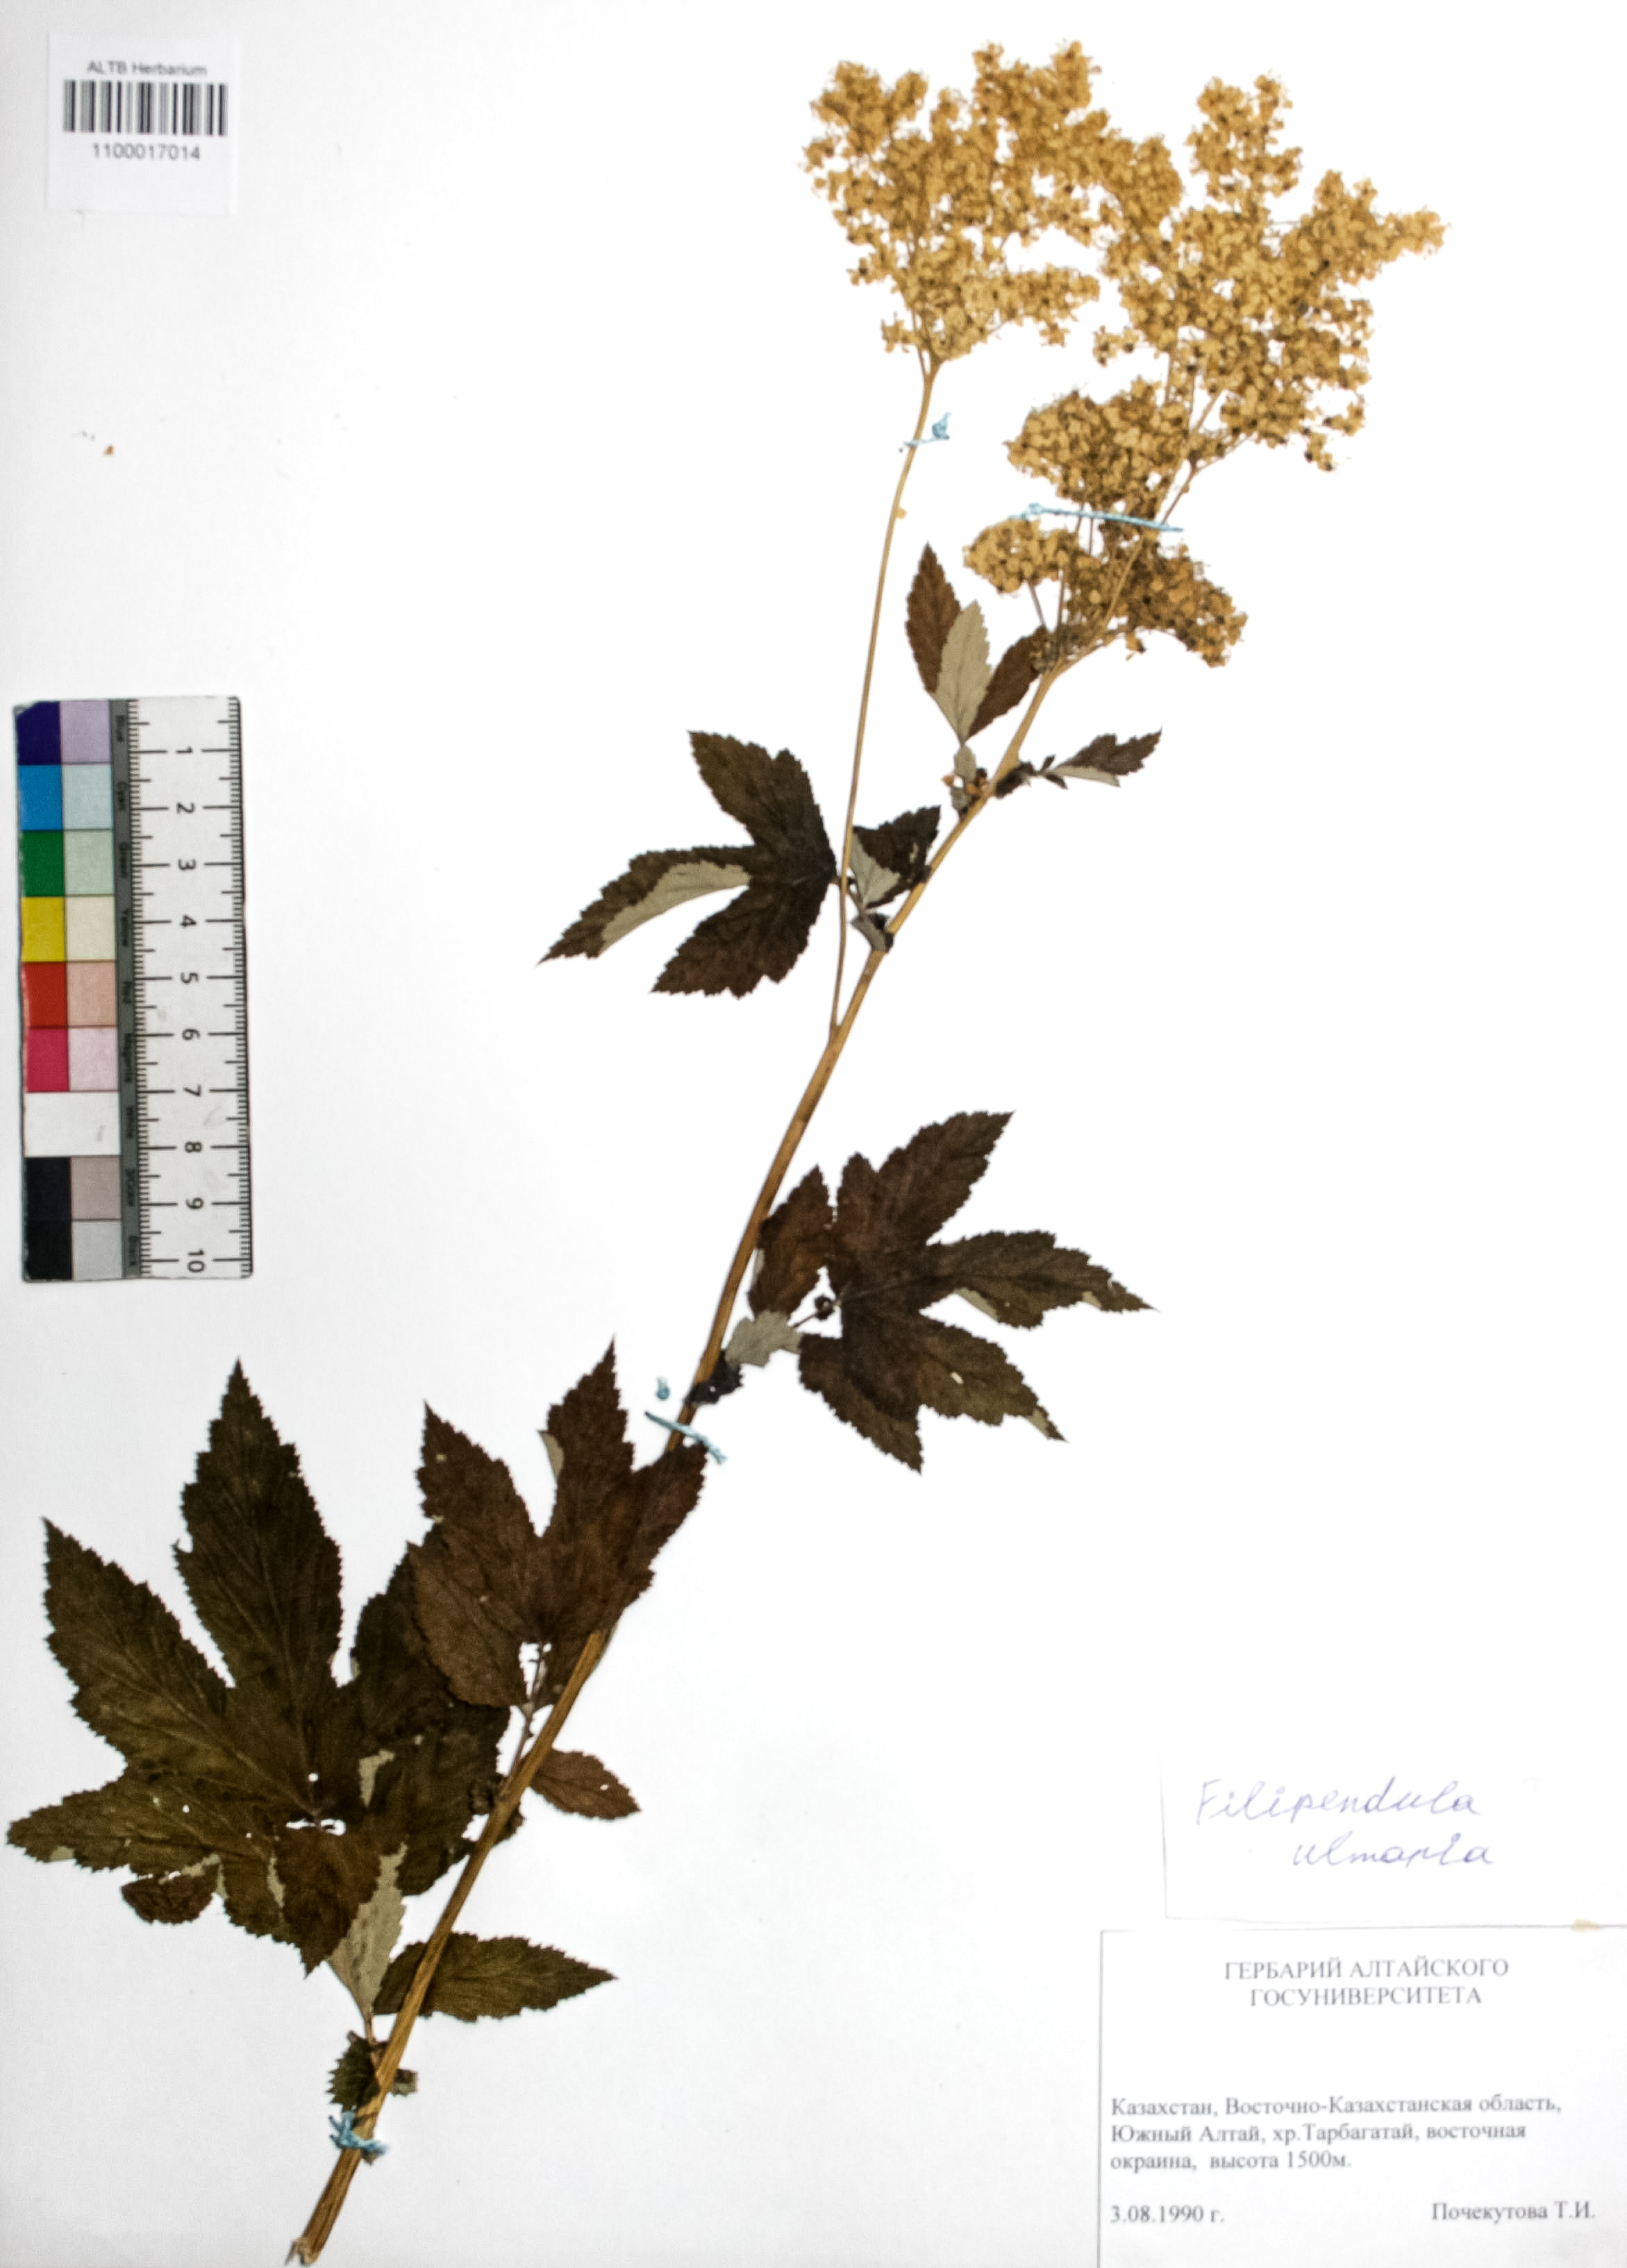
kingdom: Plantae
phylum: Tracheophyta
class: Magnoliopsida
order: Rosales
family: Rosaceae
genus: Filipendula
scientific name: Filipendula ulmaria
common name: Meadowsweet
